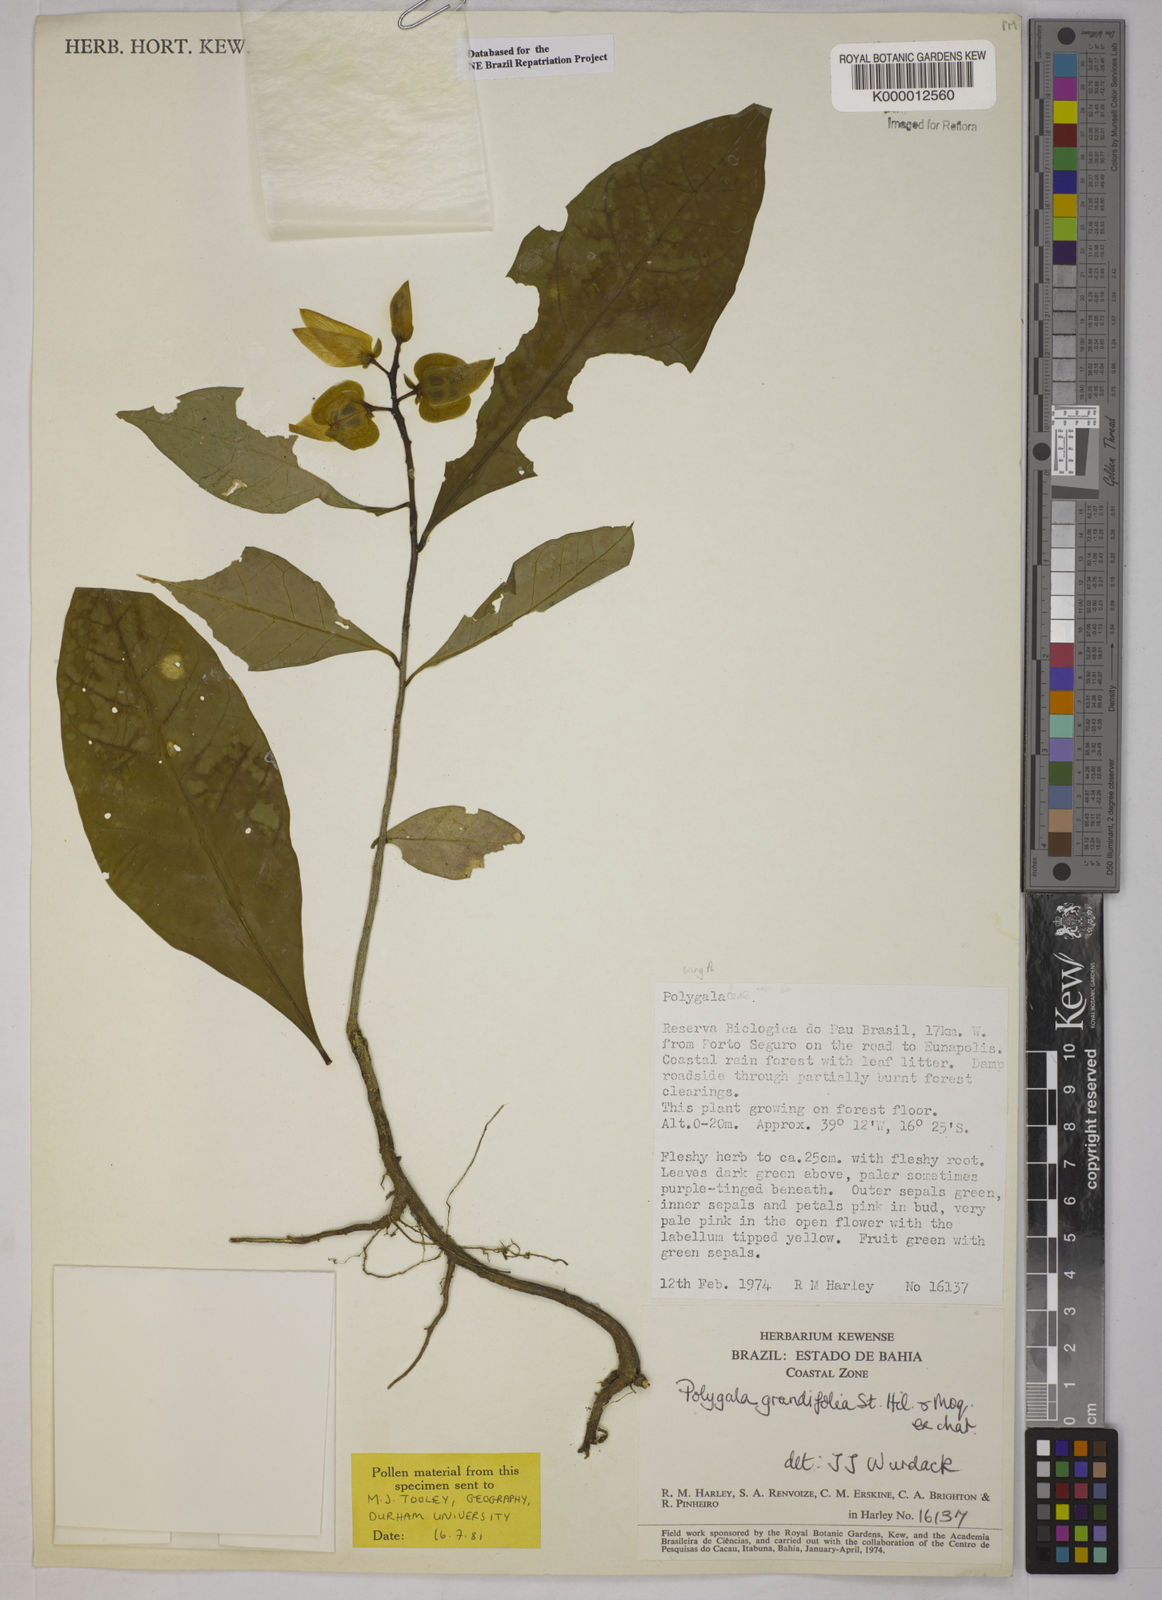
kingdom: Plantae
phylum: Tracheophyta
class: Magnoliopsida
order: Fabales
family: Polygalaceae
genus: Caamembeca
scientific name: Caamembeca grandifolia
